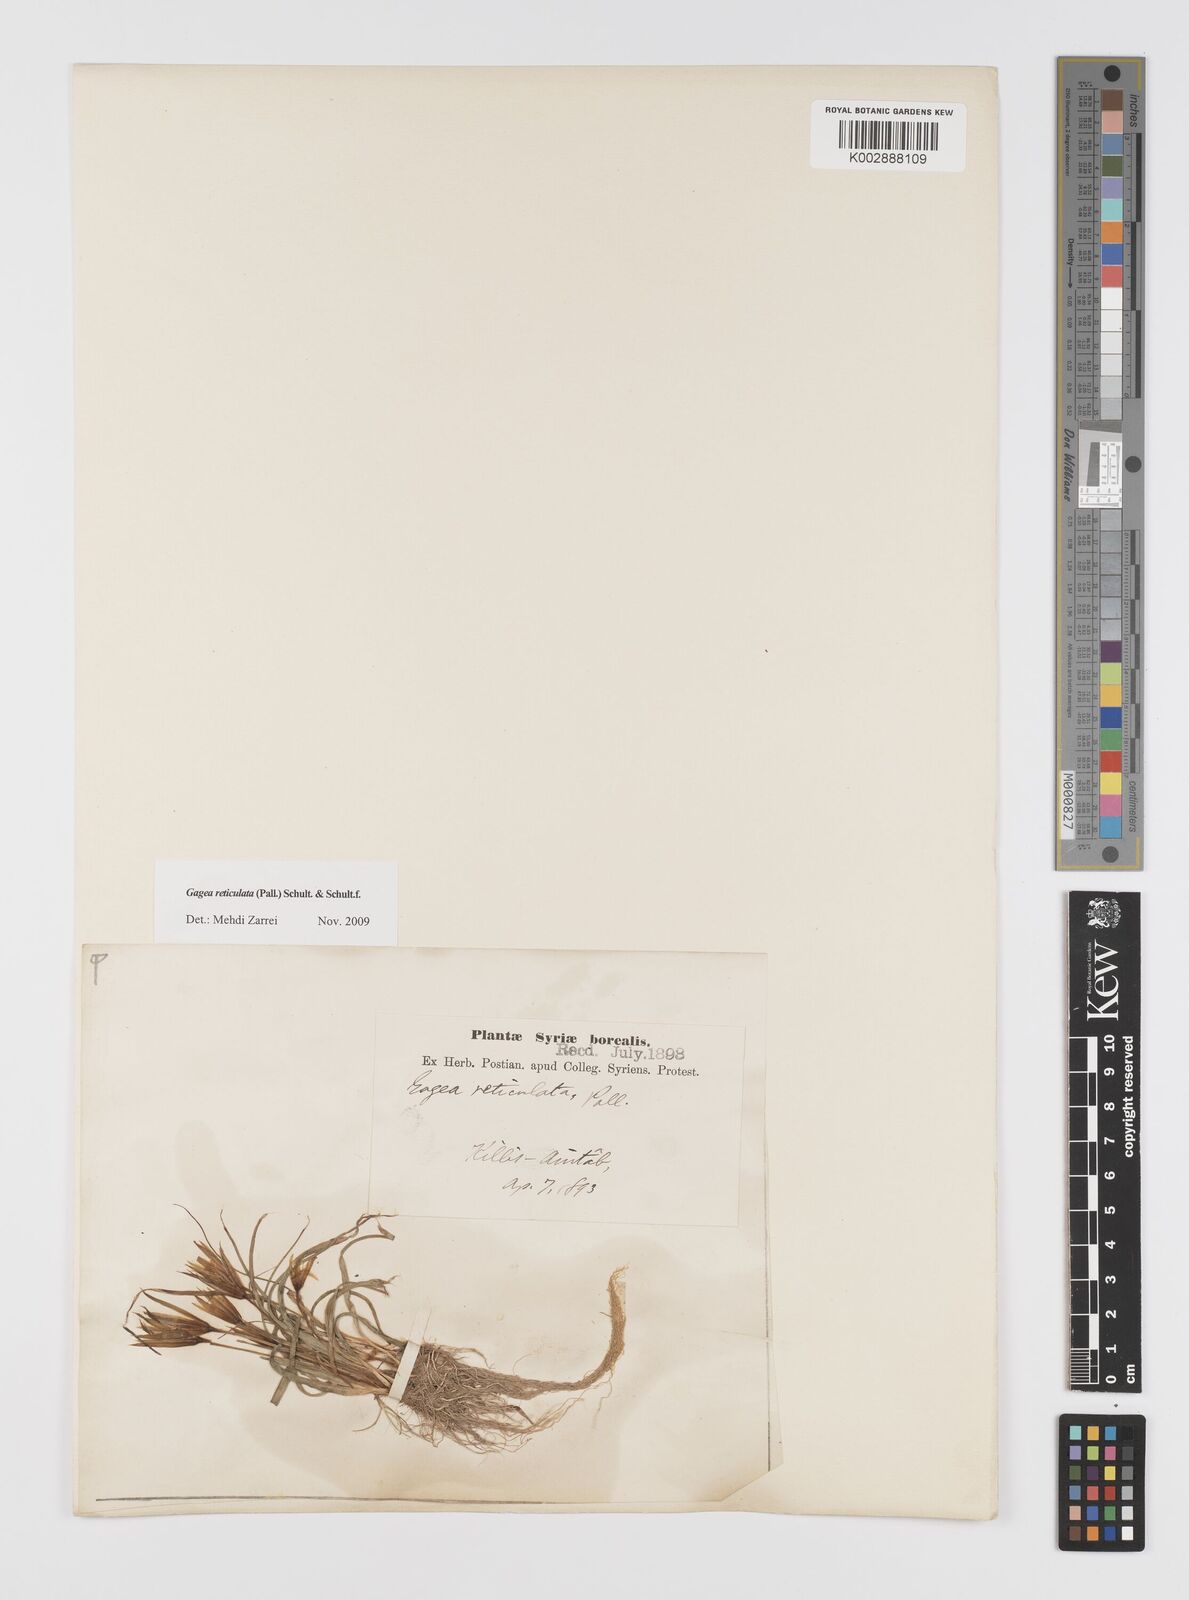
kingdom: Plantae
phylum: Tracheophyta
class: Liliopsida
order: Liliales
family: Liliaceae
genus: Gagea
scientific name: Gagea reticulata
